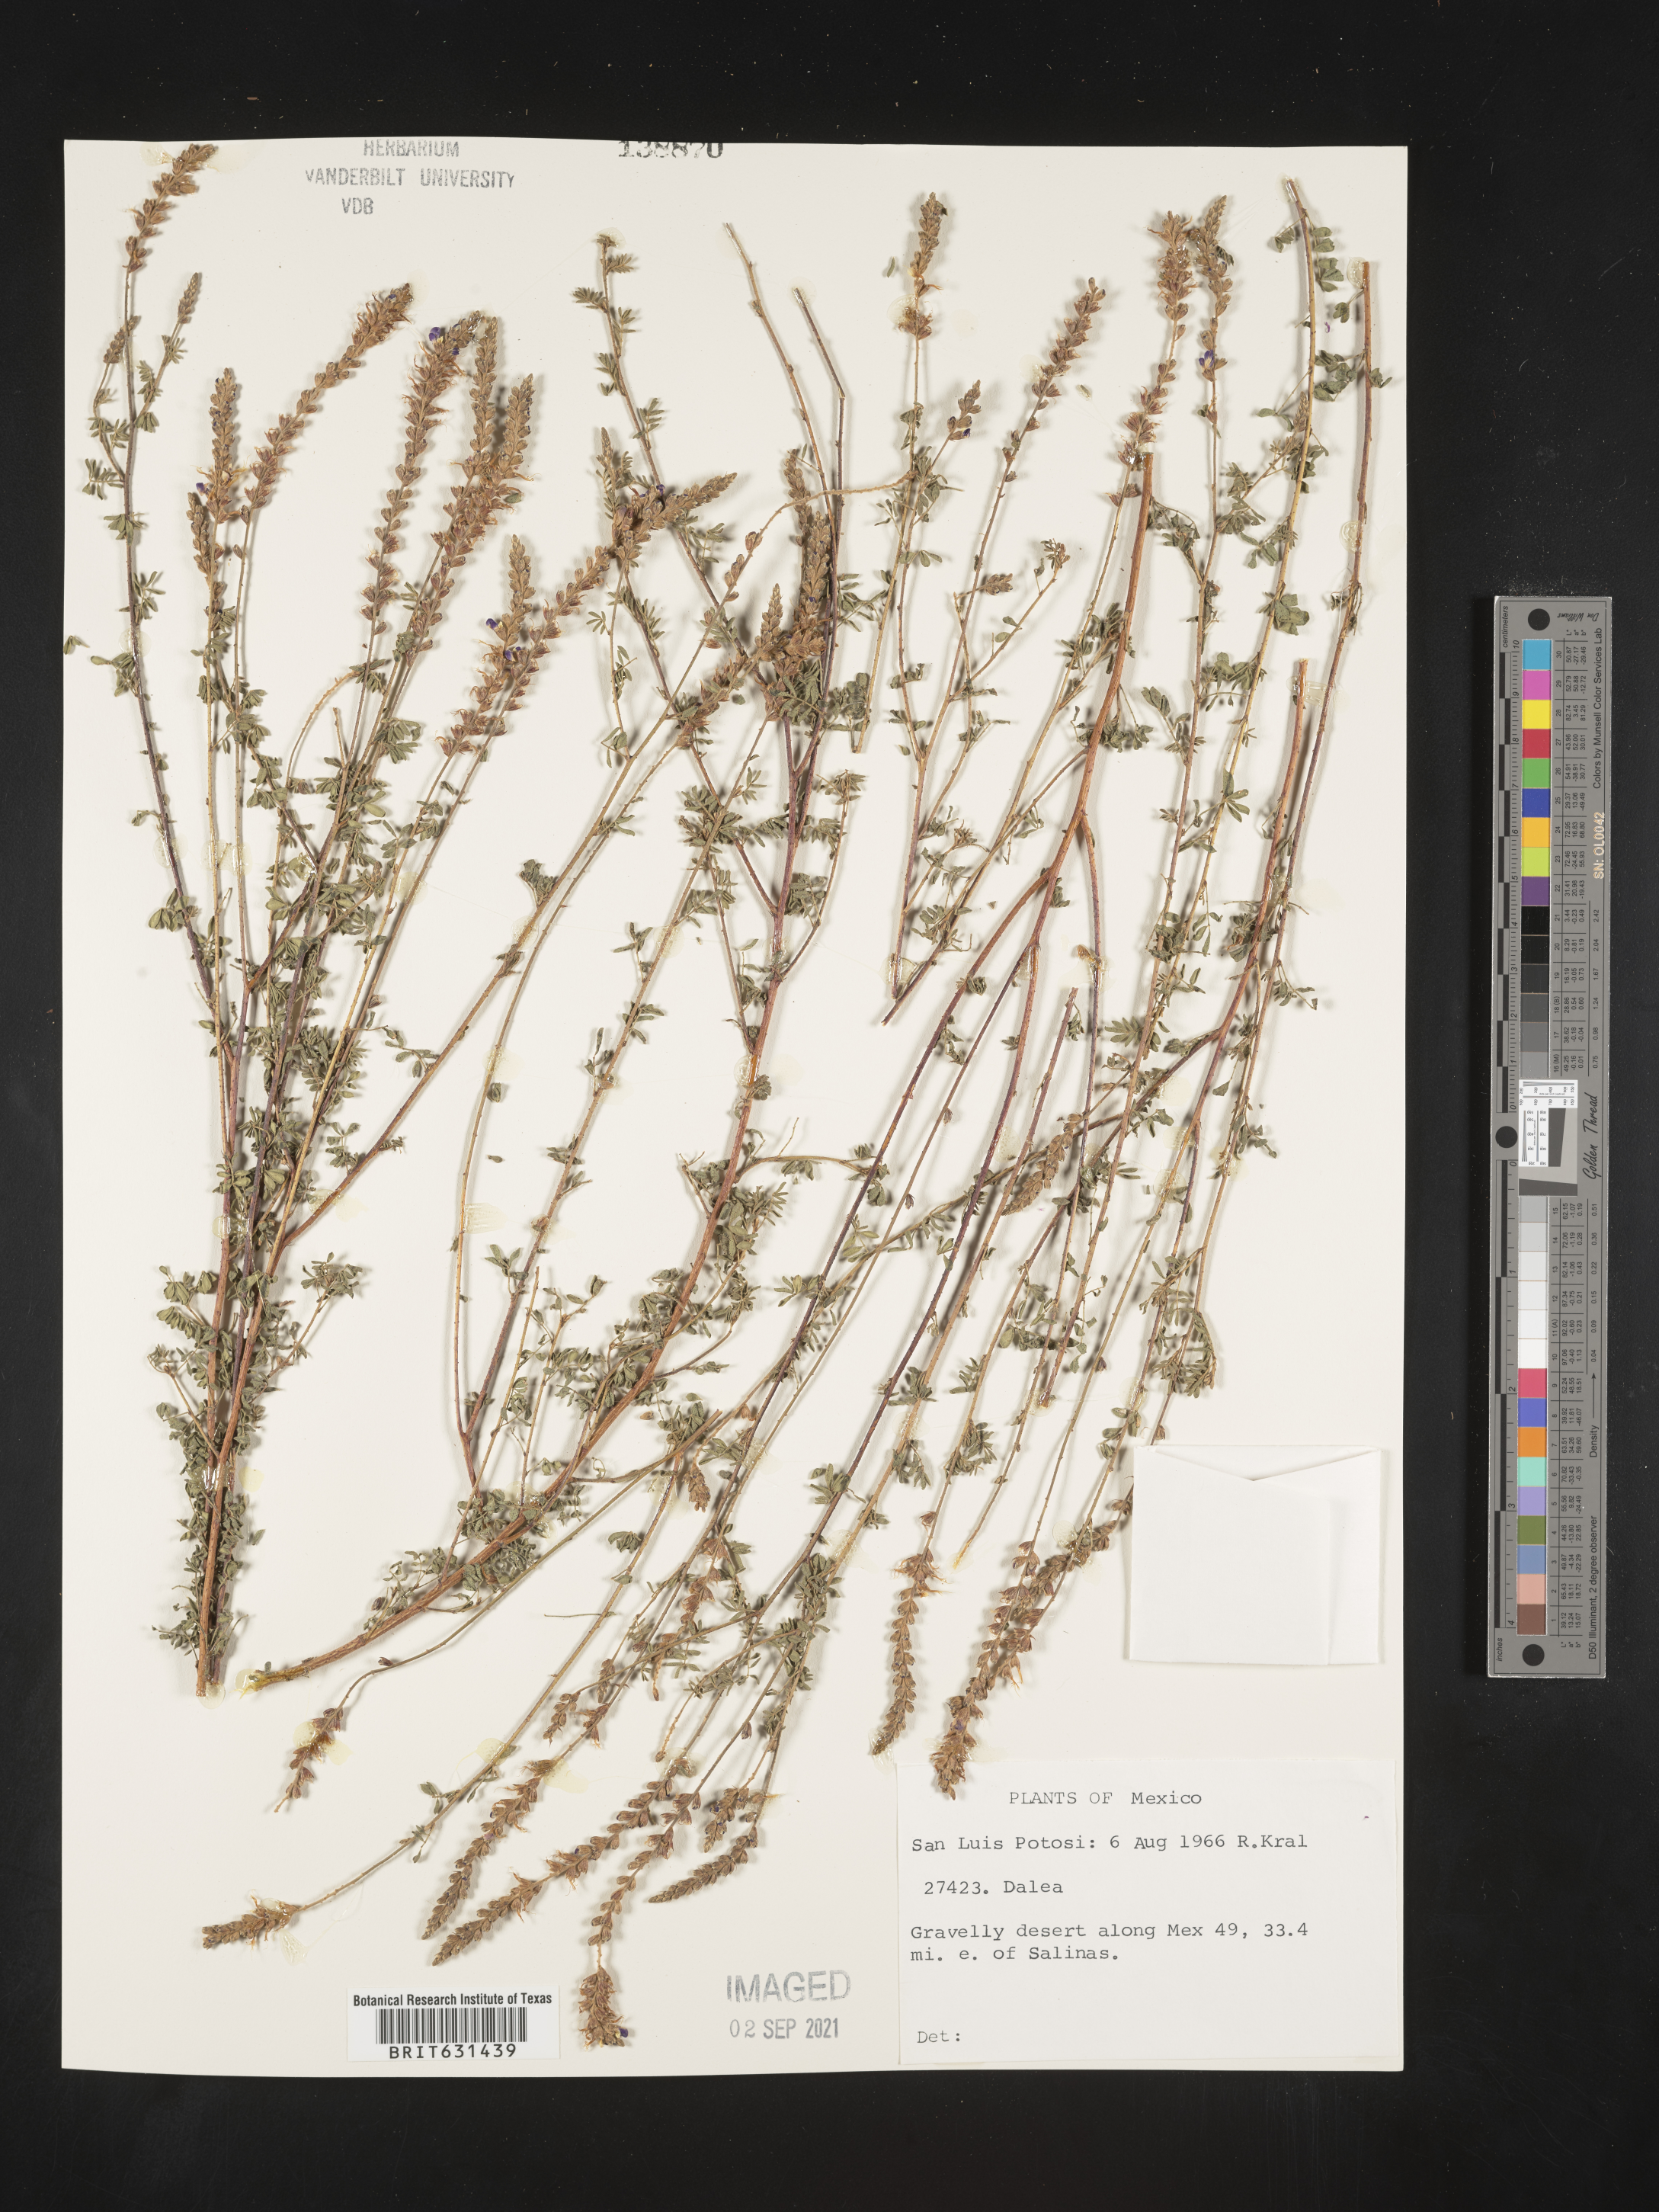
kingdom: Plantae
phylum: Tracheophyta
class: Magnoliopsida
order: Fabales
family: Fabaceae
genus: Dalea
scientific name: Dalea
